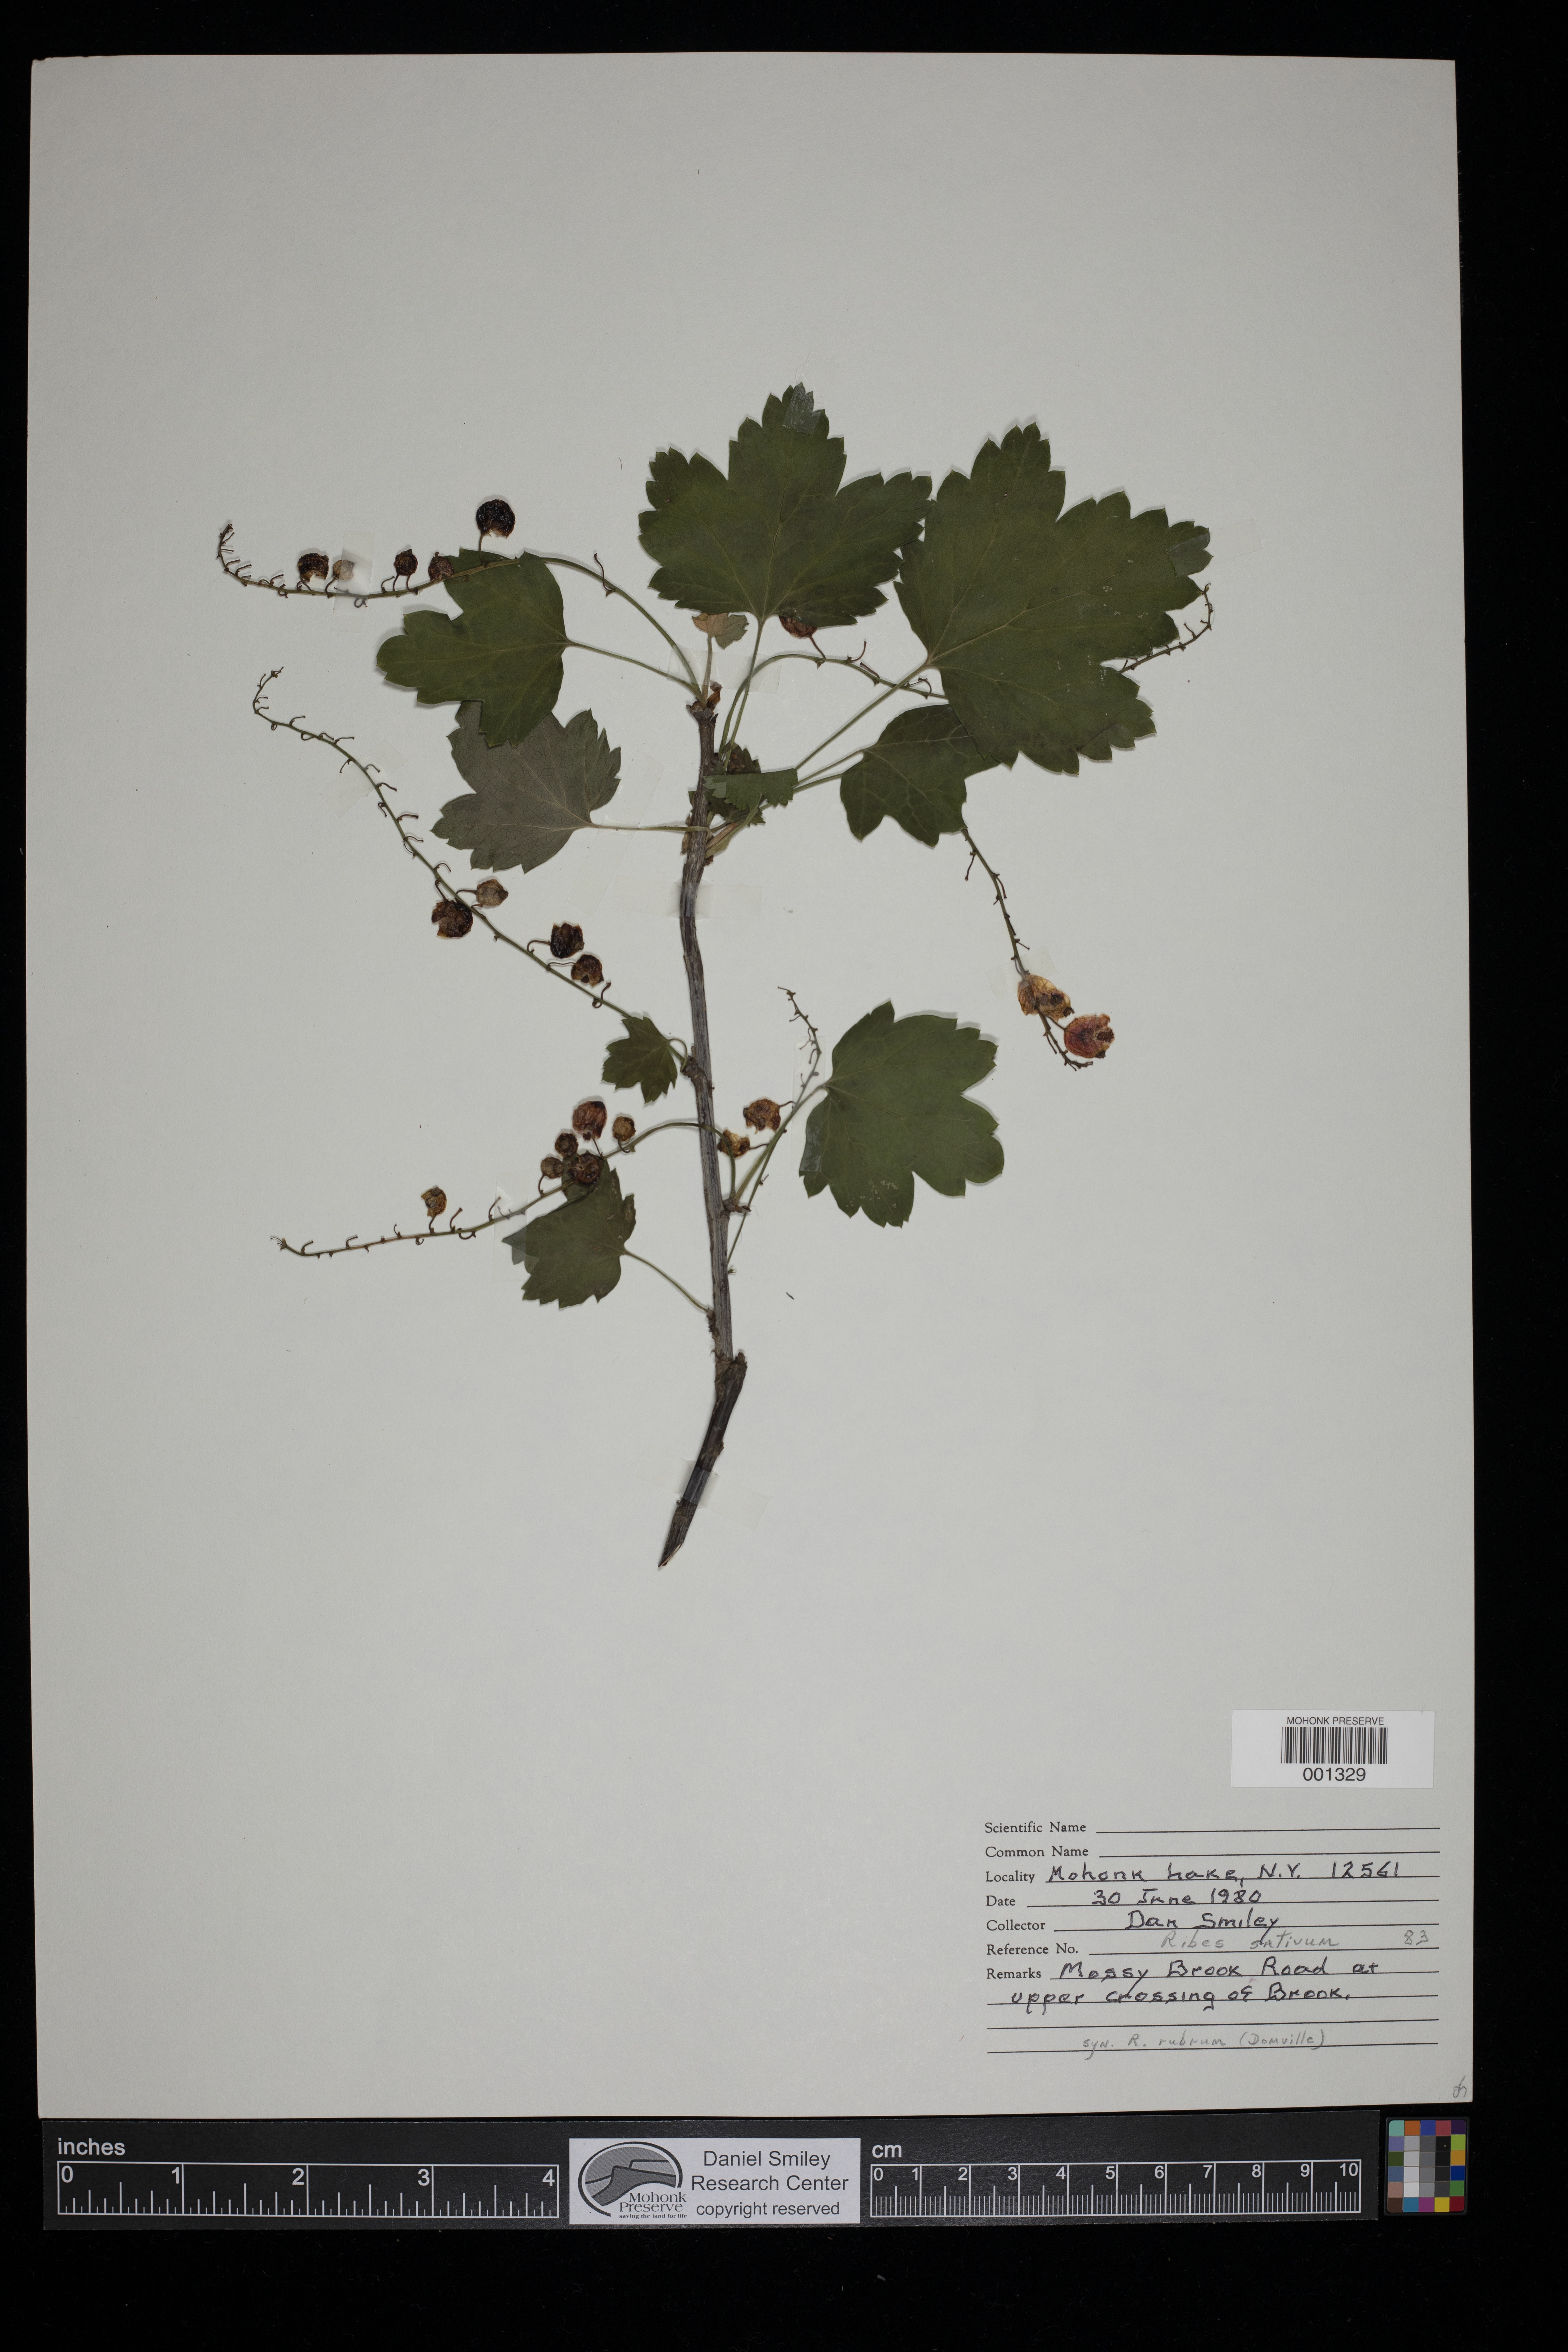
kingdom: Plantae
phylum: Tracheophyta
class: Magnoliopsida
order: Saxifragales
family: Grossulariaceae
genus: Ribes
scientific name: Ribes rubrum
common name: Red currant
